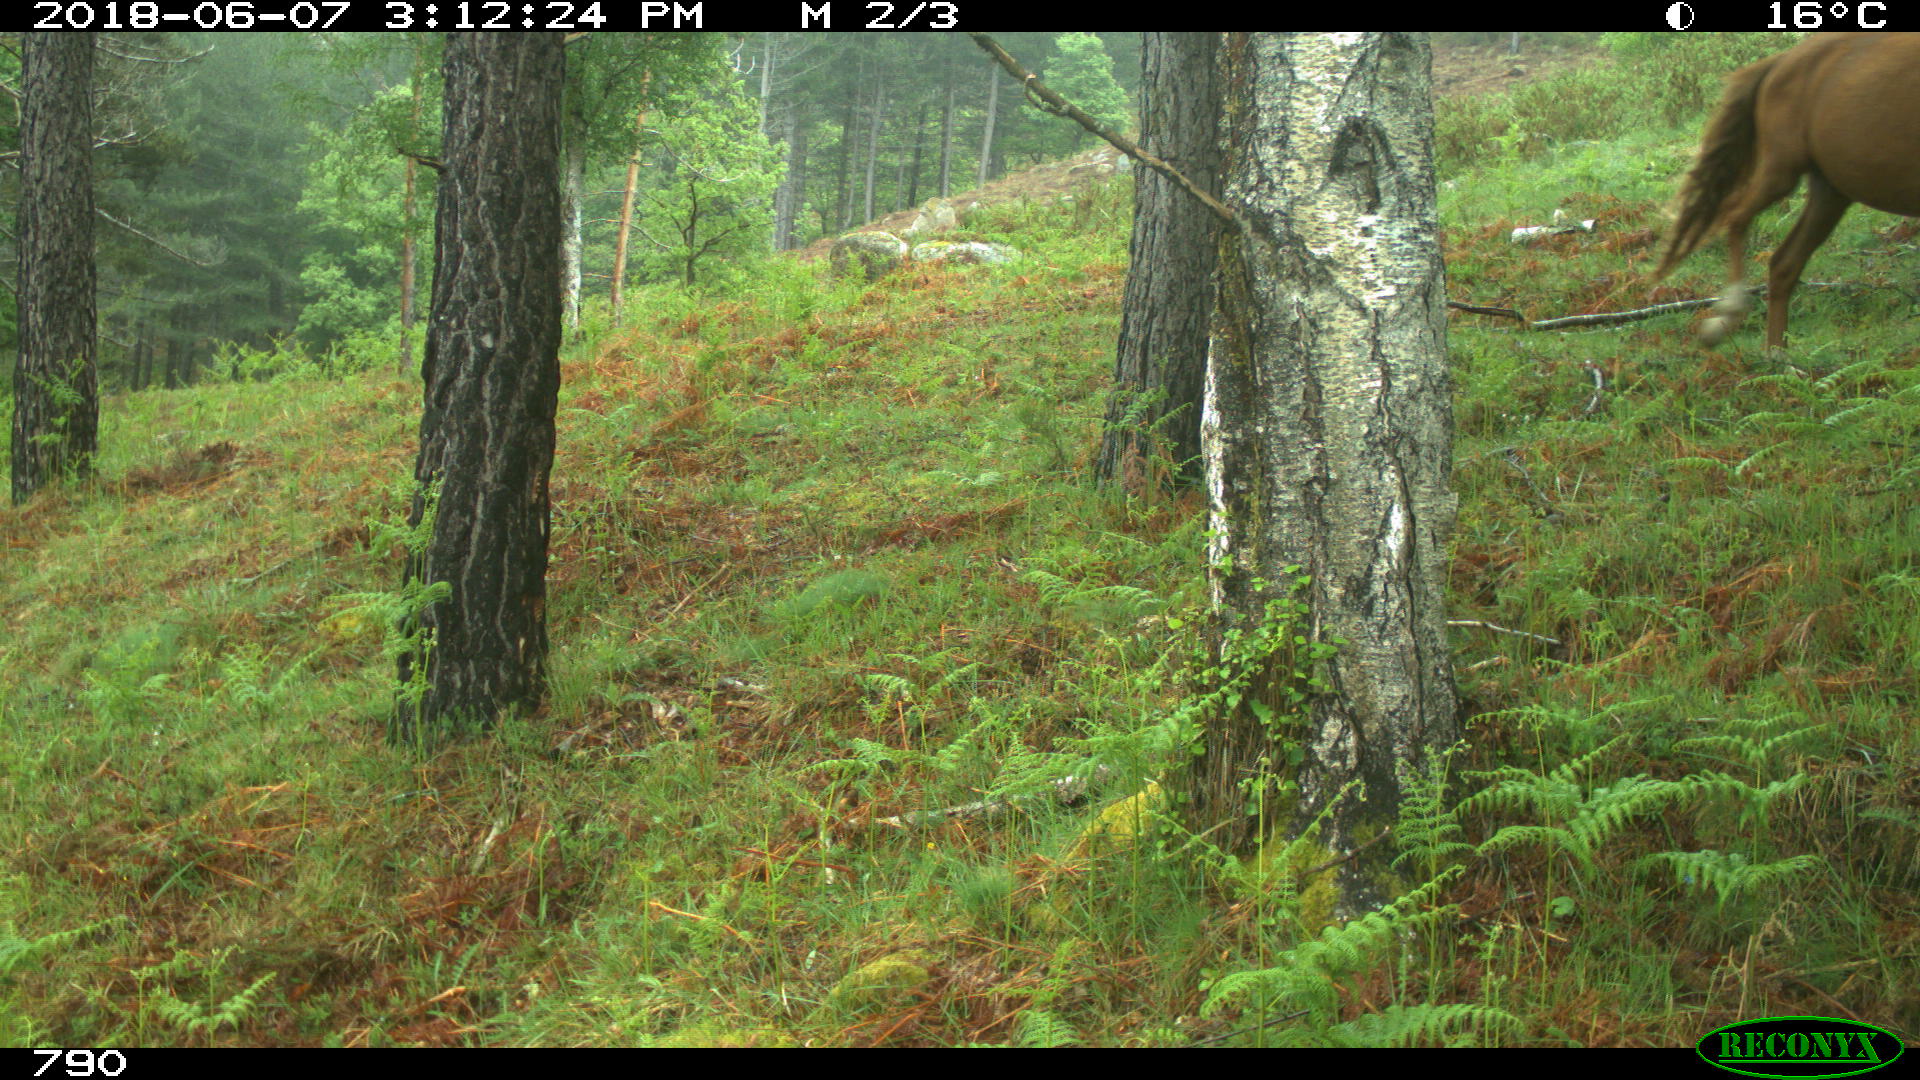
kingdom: Animalia
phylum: Chordata
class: Mammalia
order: Perissodactyla
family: Equidae
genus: Equus
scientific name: Equus caballus
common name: Horse
